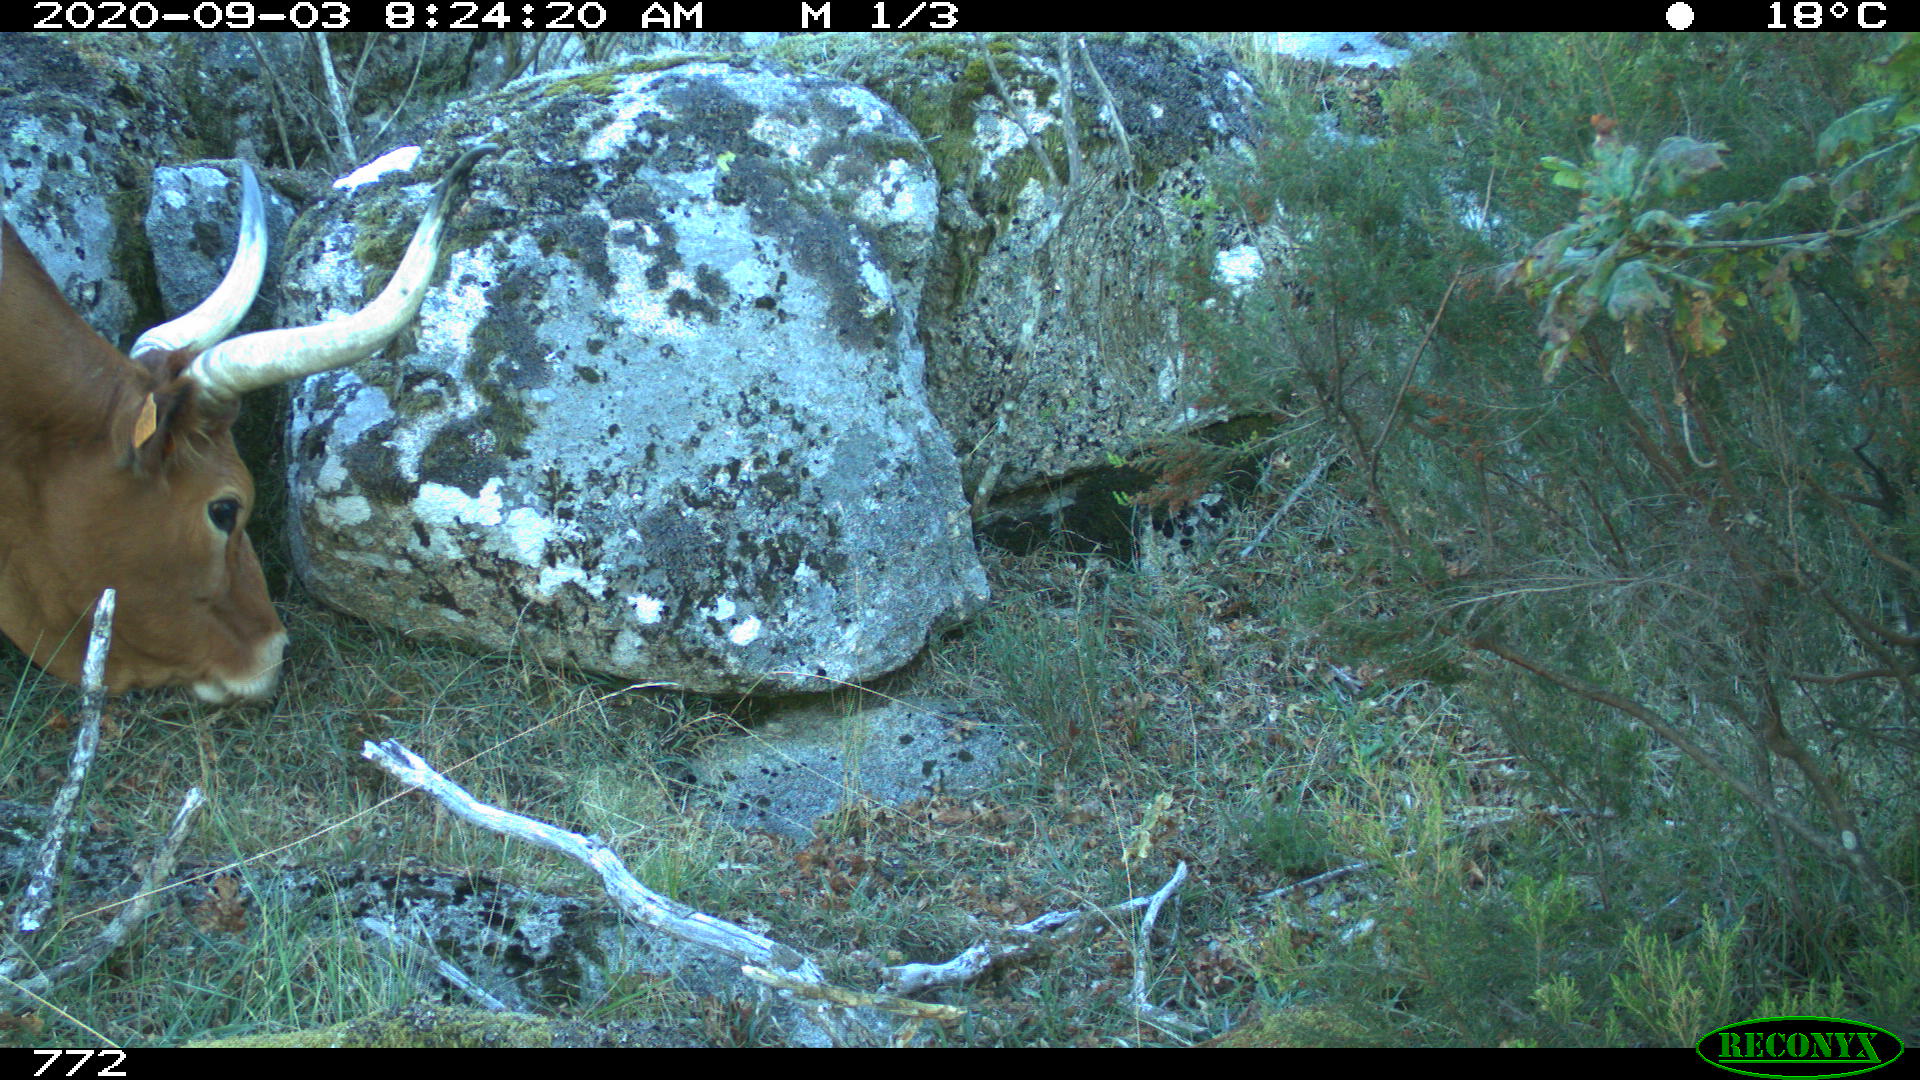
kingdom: Animalia
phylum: Chordata
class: Mammalia
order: Artiodactyla
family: Bovidae
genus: Bos
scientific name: Bos taurus
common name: Domesticated cattle
